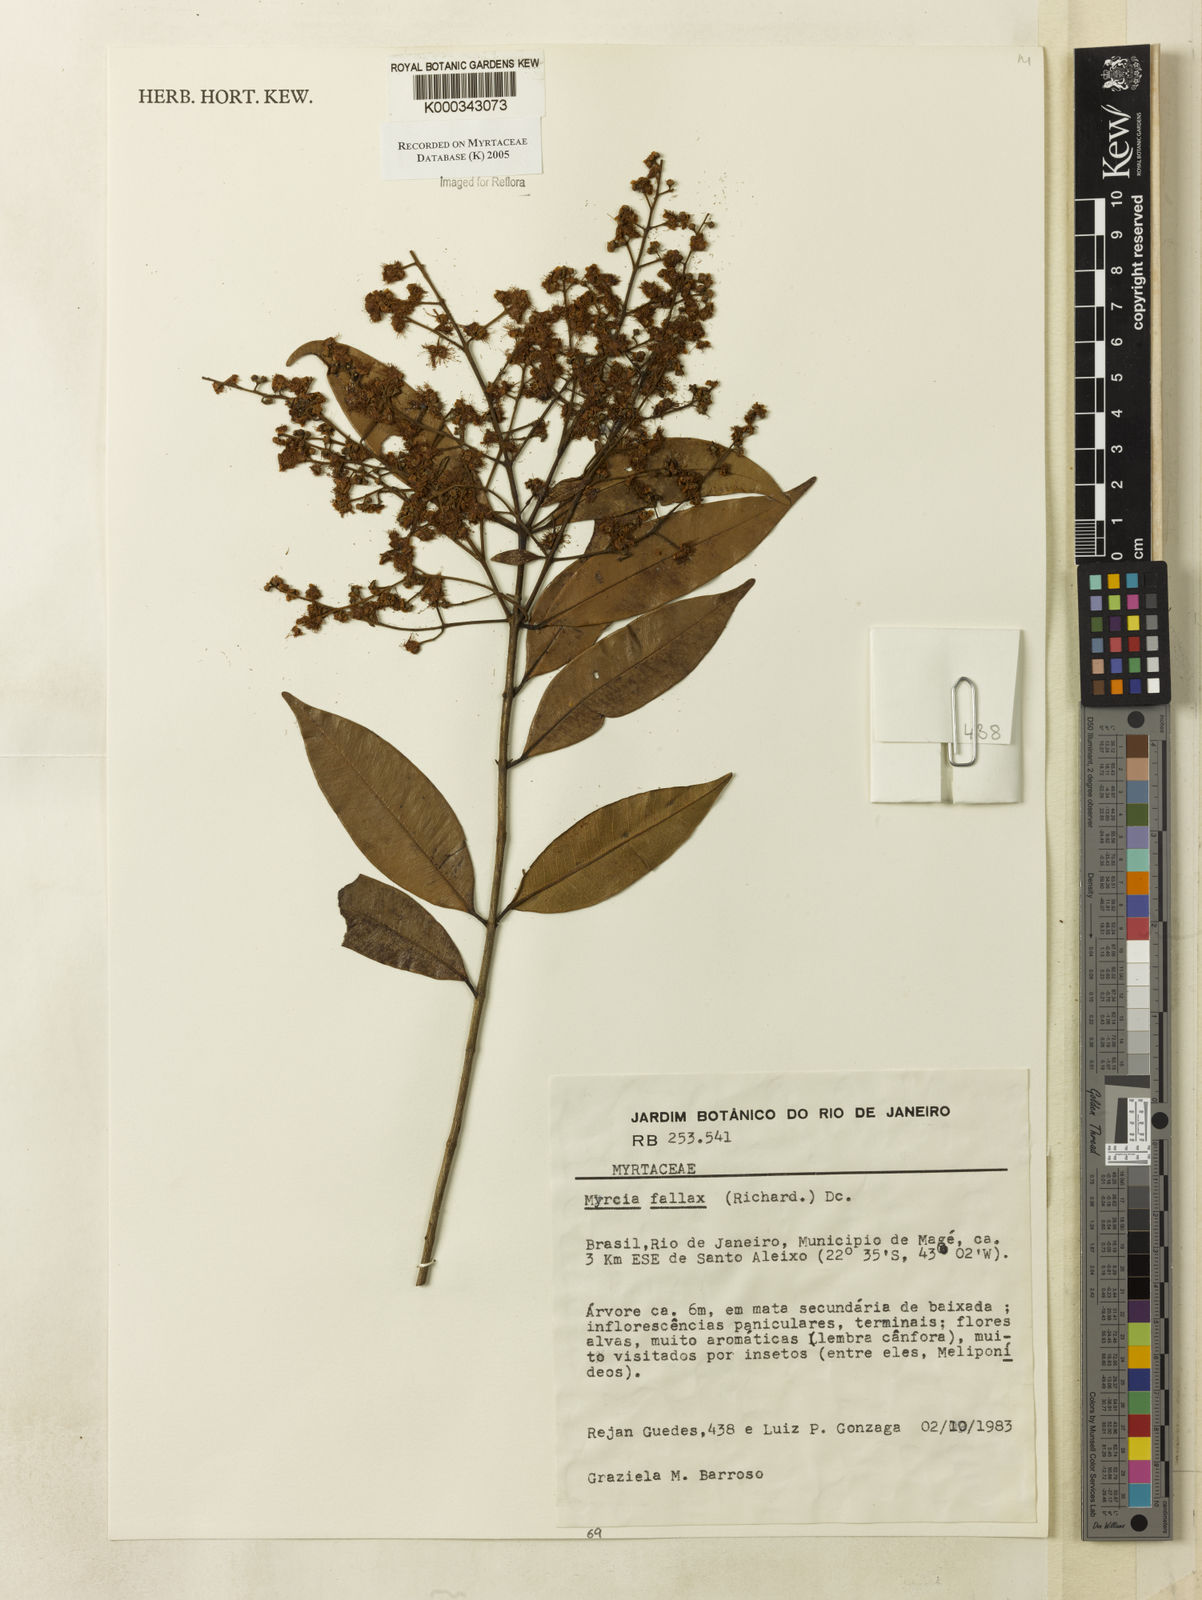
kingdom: Plantae
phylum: Tracheophyta
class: Magnoliopsida
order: Myrtales
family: Myrtaceae
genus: Myrcia
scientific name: Myrcia splendens
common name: Surinam cherry
